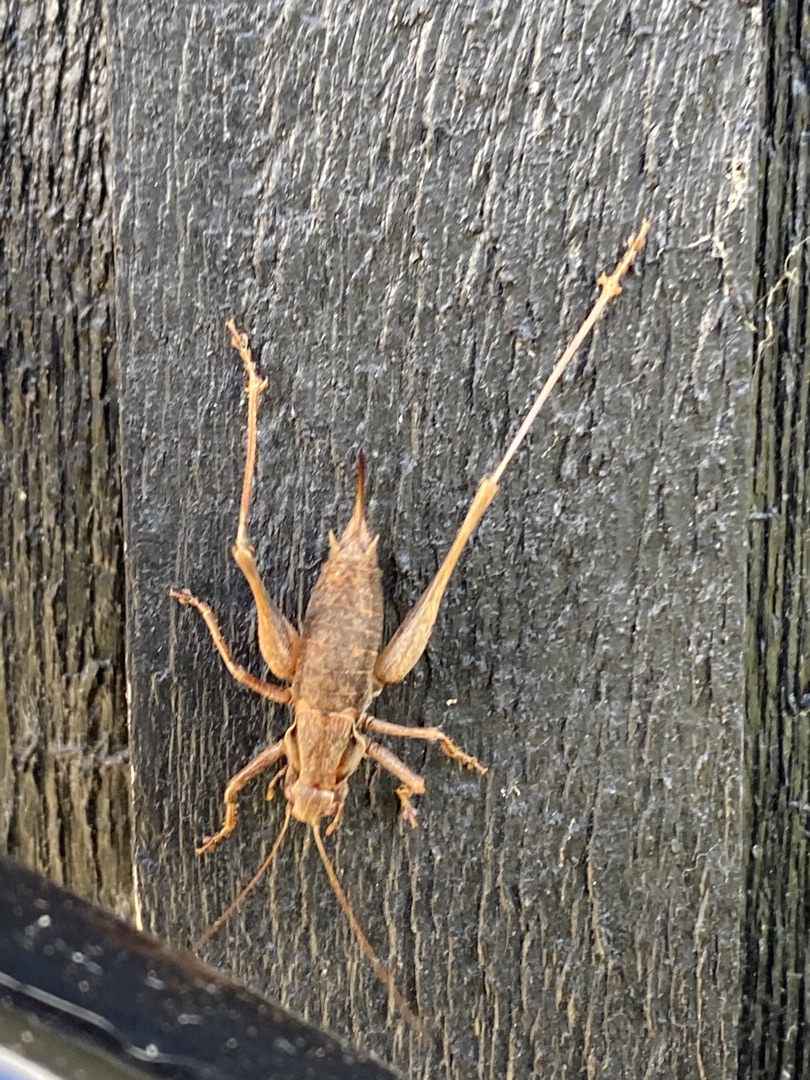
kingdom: Animalia
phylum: Arthropoda
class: Insecta
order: Orthoptera
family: Tettigoniidae
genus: Pholidoptera
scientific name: Pholidoptera griseoaptera
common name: Buskgræshoppe
